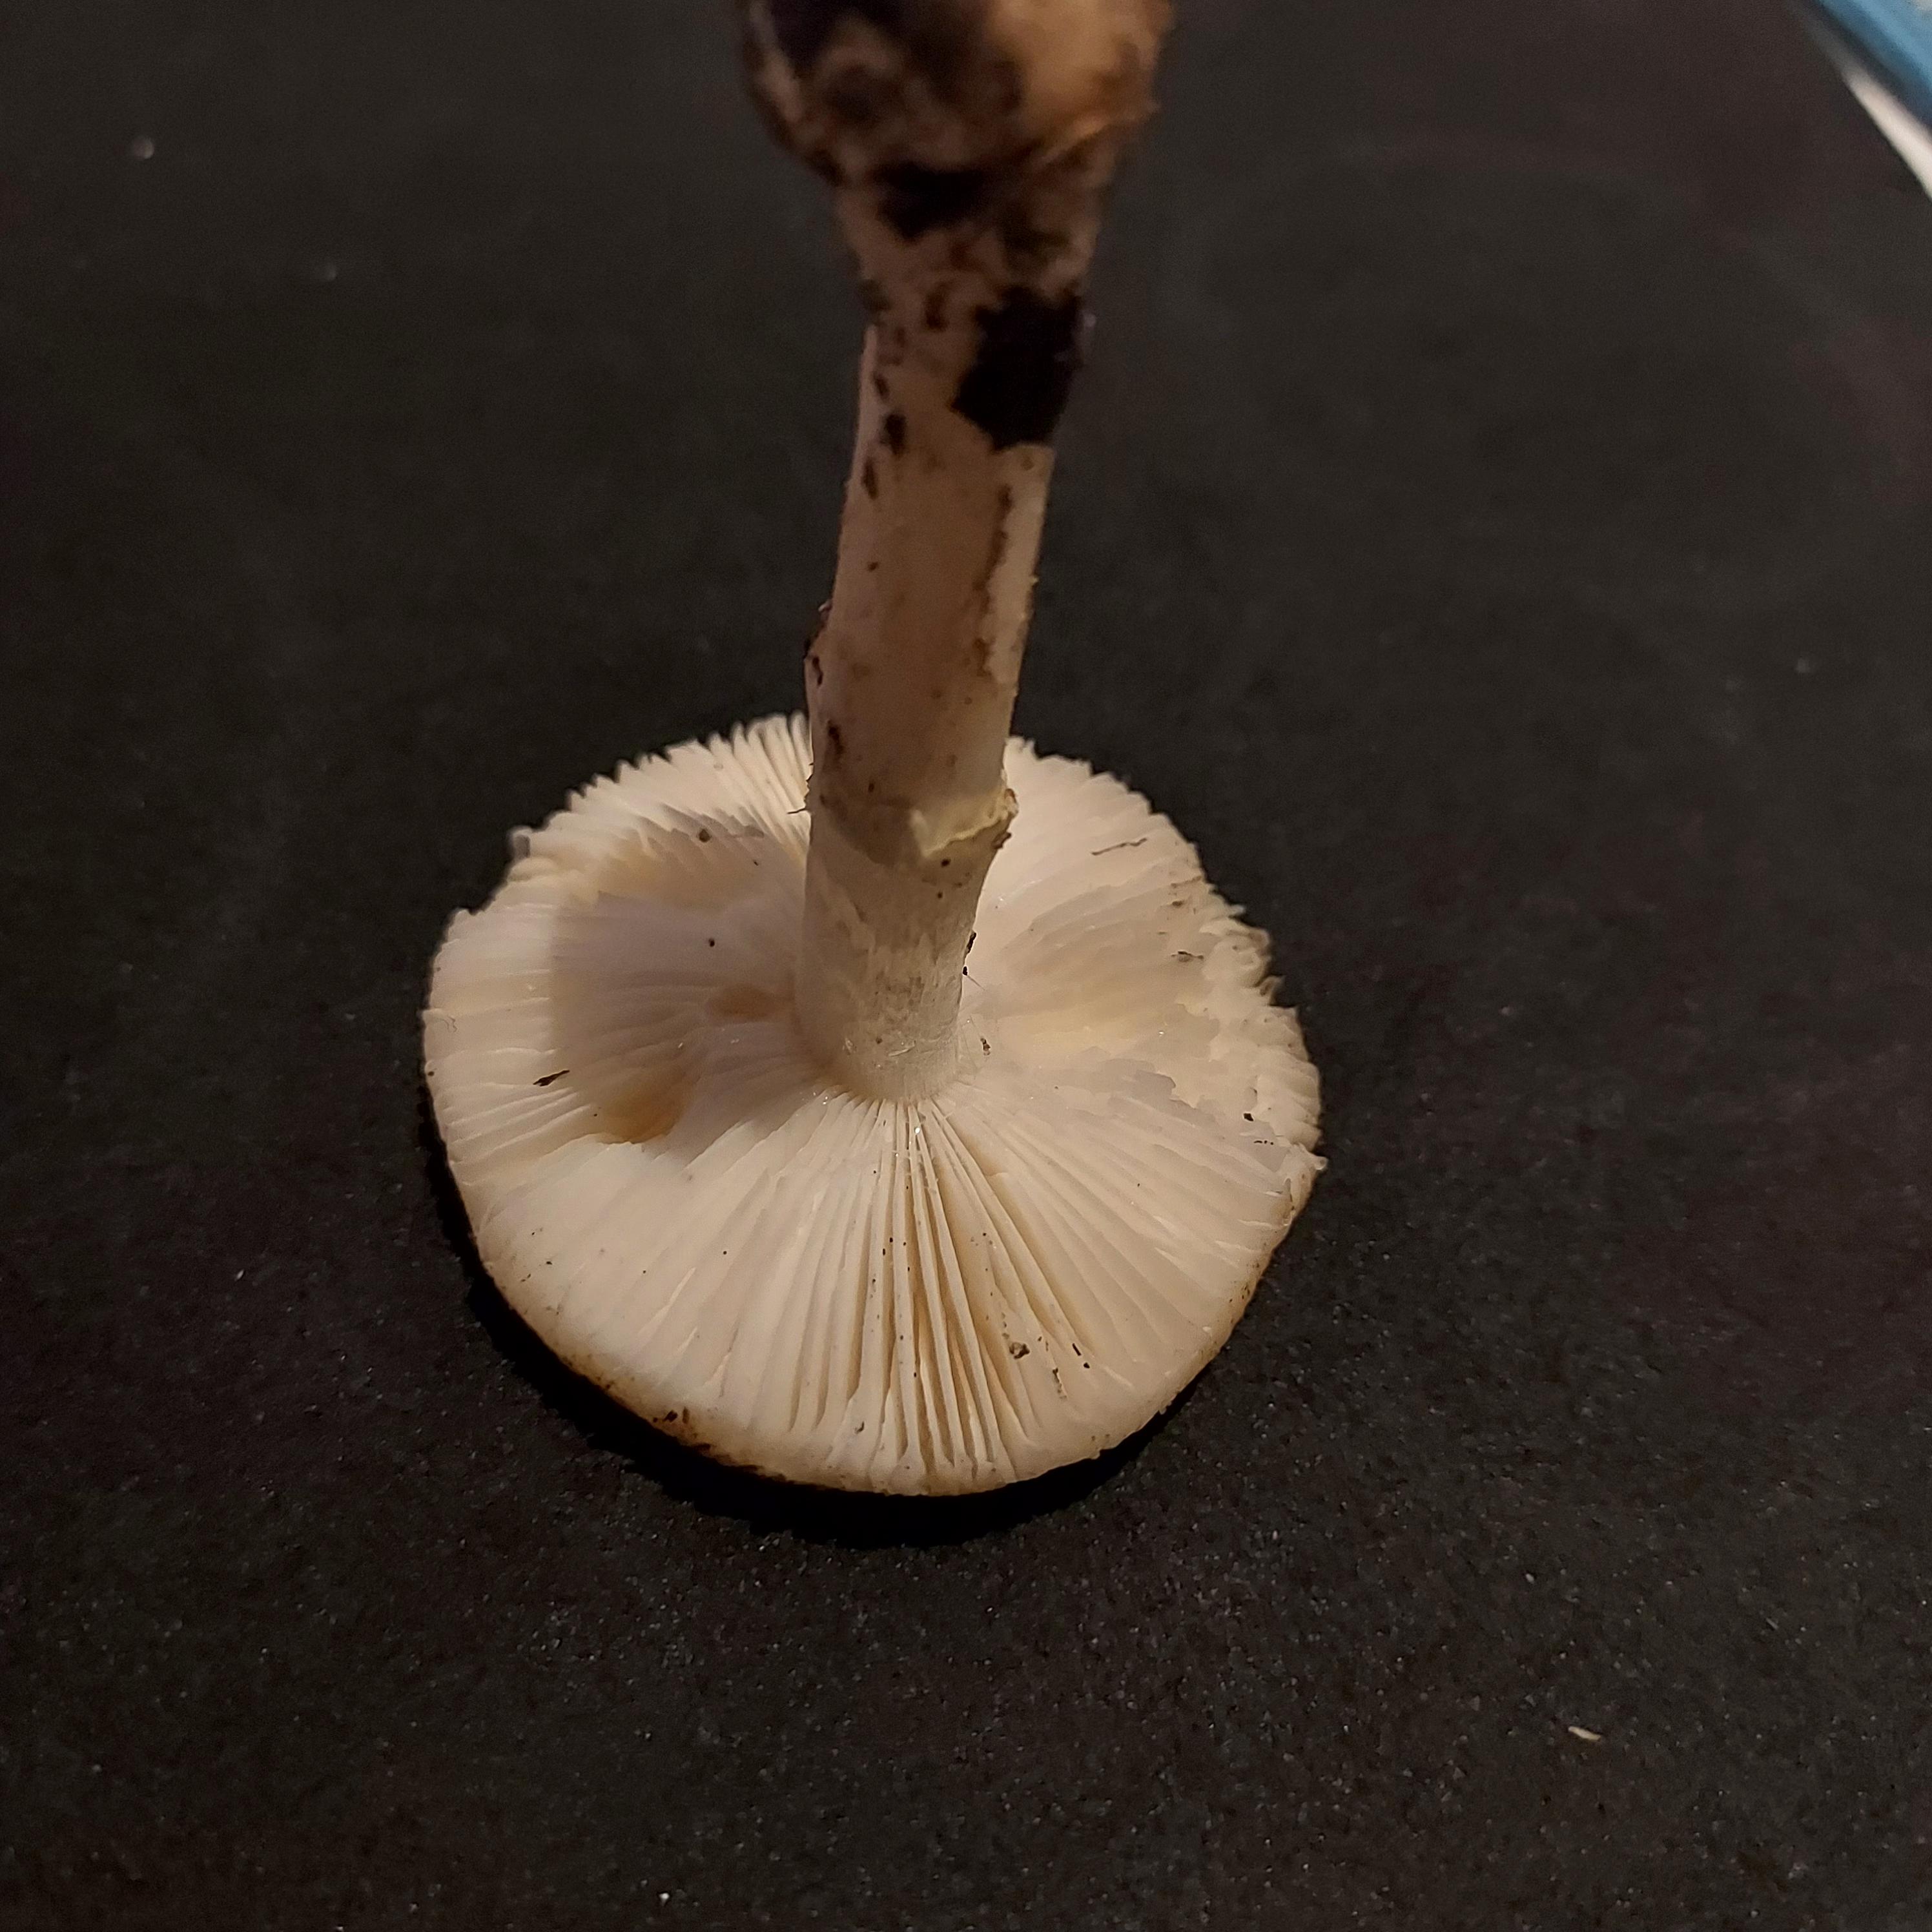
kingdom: Fungi
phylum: Basidiomycota
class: Agaricomycetes
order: Agaricales
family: Amanitaceae
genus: Amanita
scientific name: Amanita citrina
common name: kugleknoldet fluesvamp
